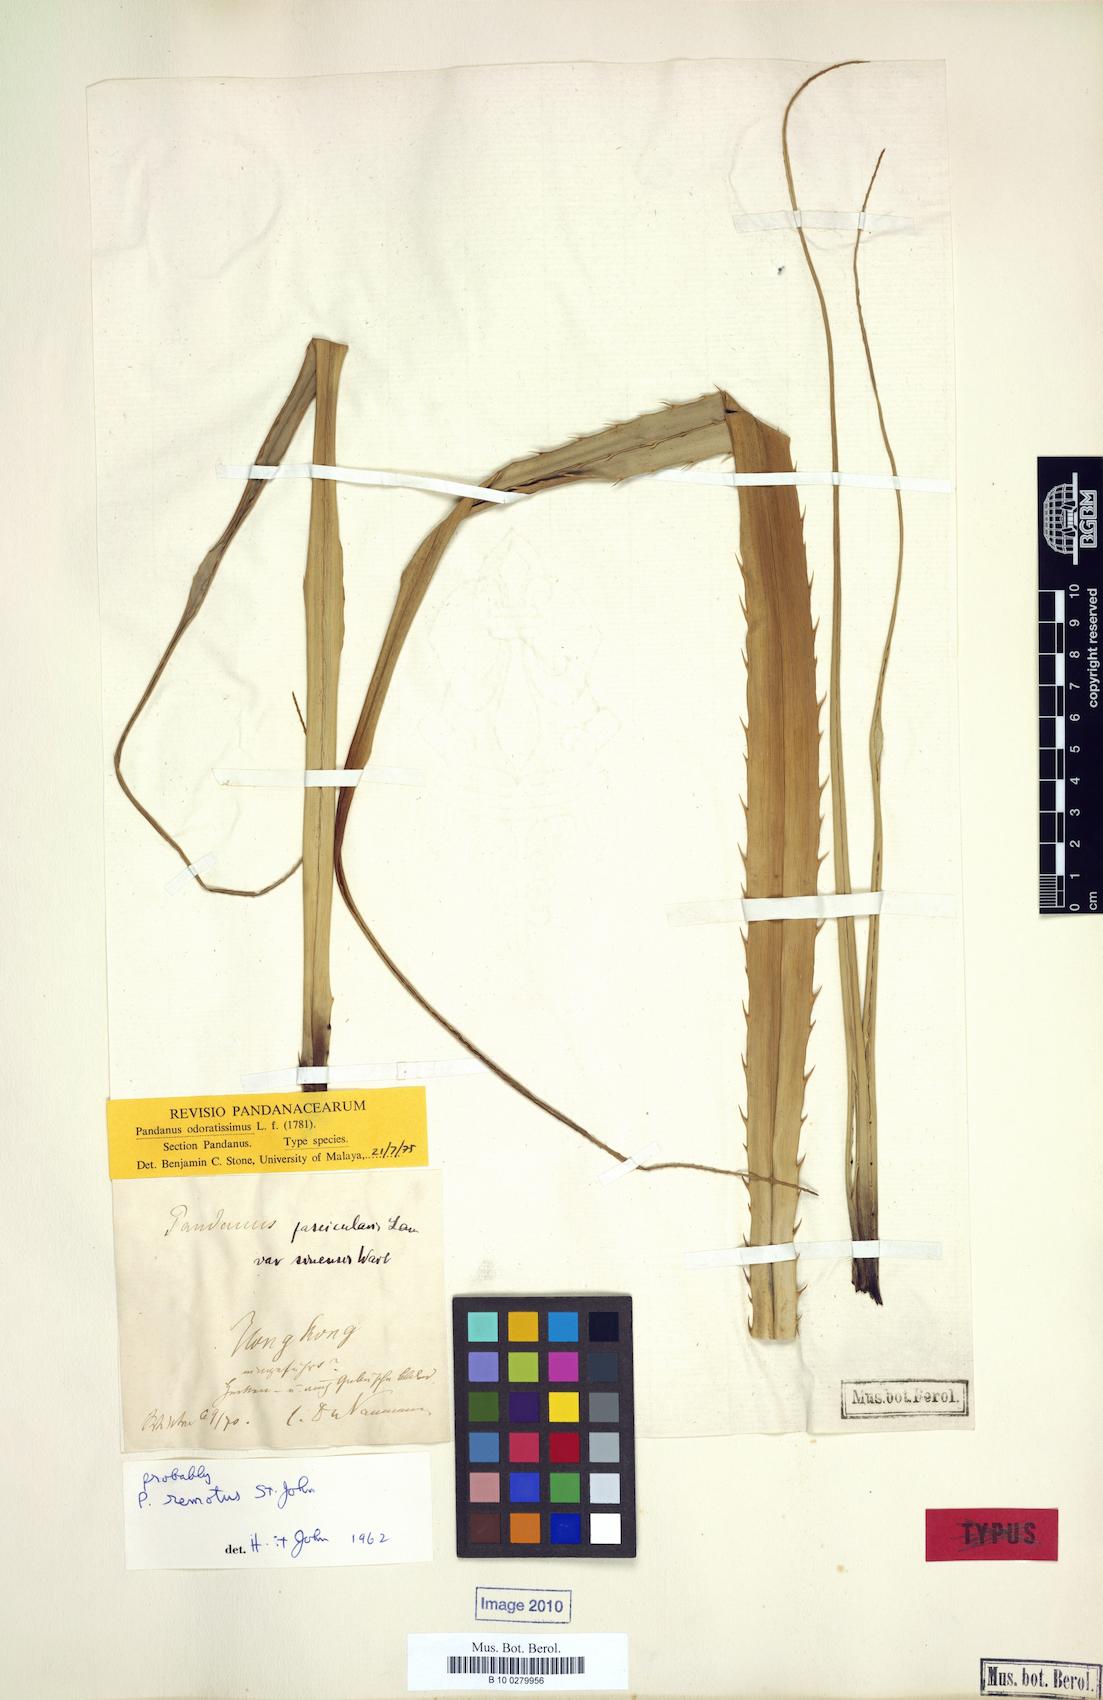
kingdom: Plantae
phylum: Tracheophyta
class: Liliopsida
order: Pandanales
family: Pandanaceae
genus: Pandanus
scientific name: Pandanus odorifer
